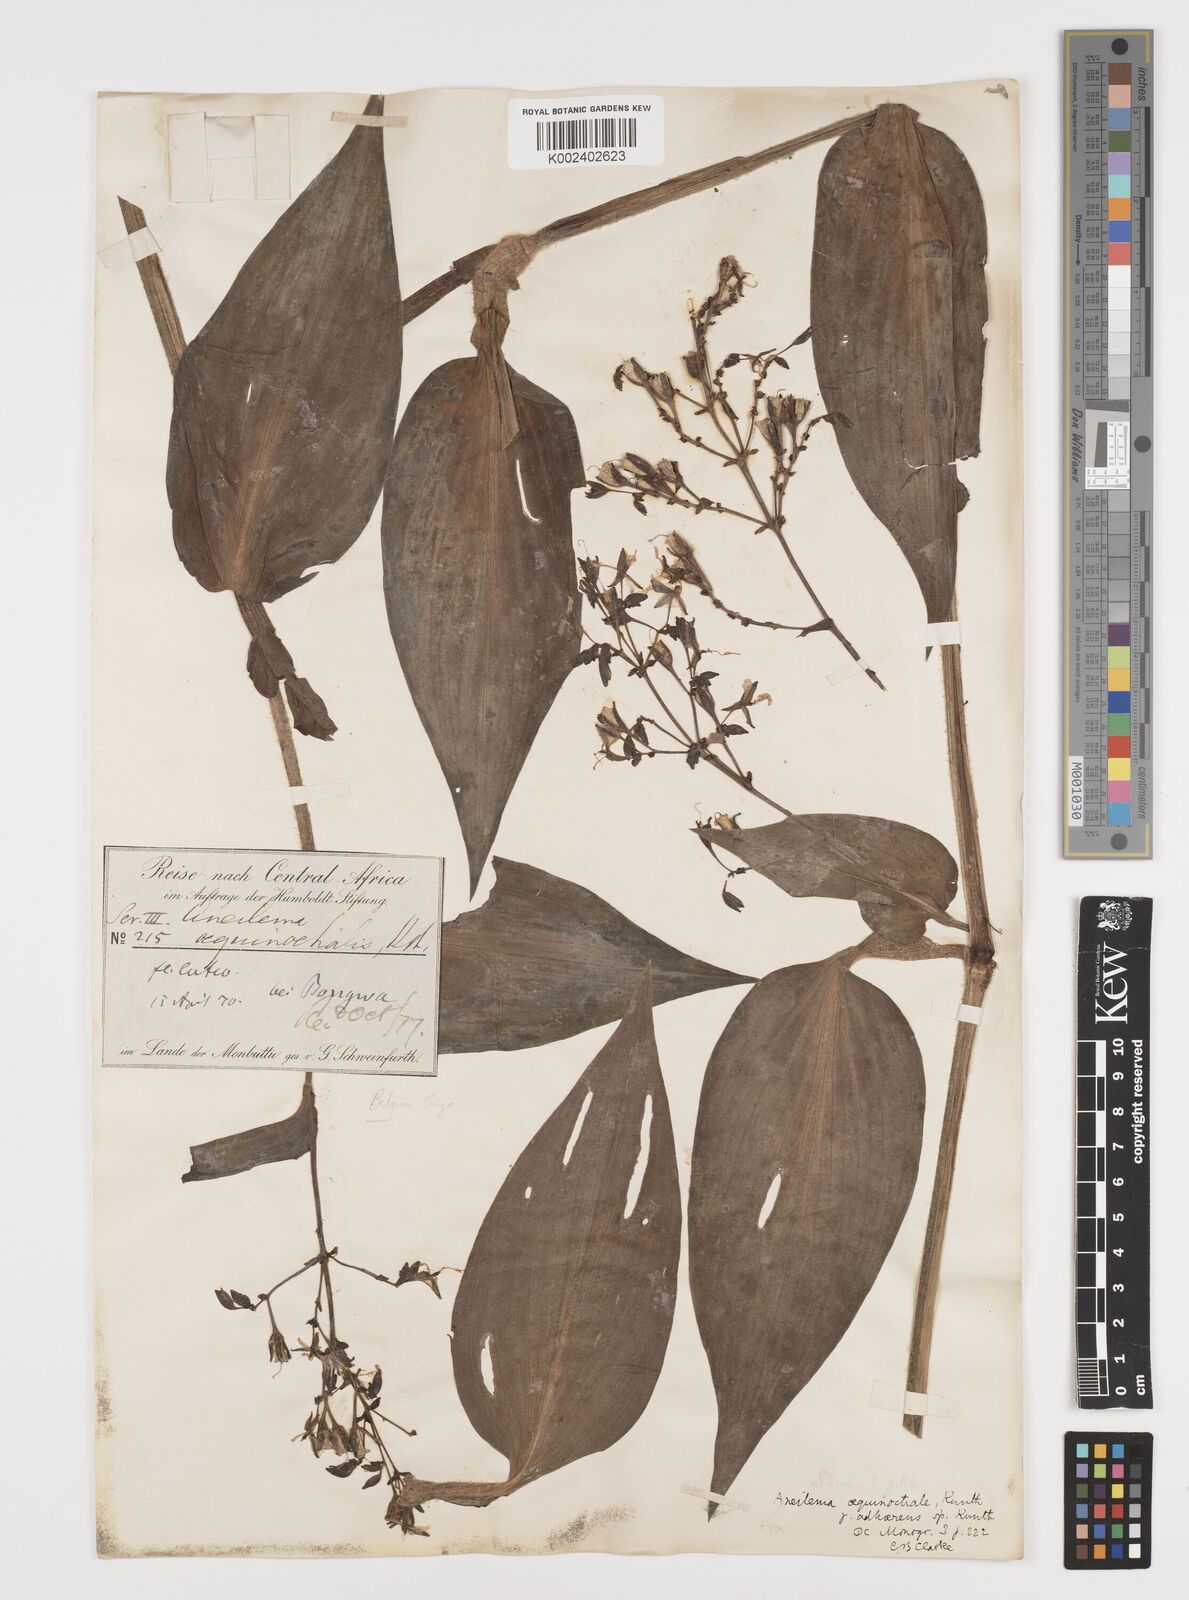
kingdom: Plantae
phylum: Tracheophyta
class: Liliopsida
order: Commelinales
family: Commelinaceae
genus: Aneilema
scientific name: Aneilema aequinoctiale
